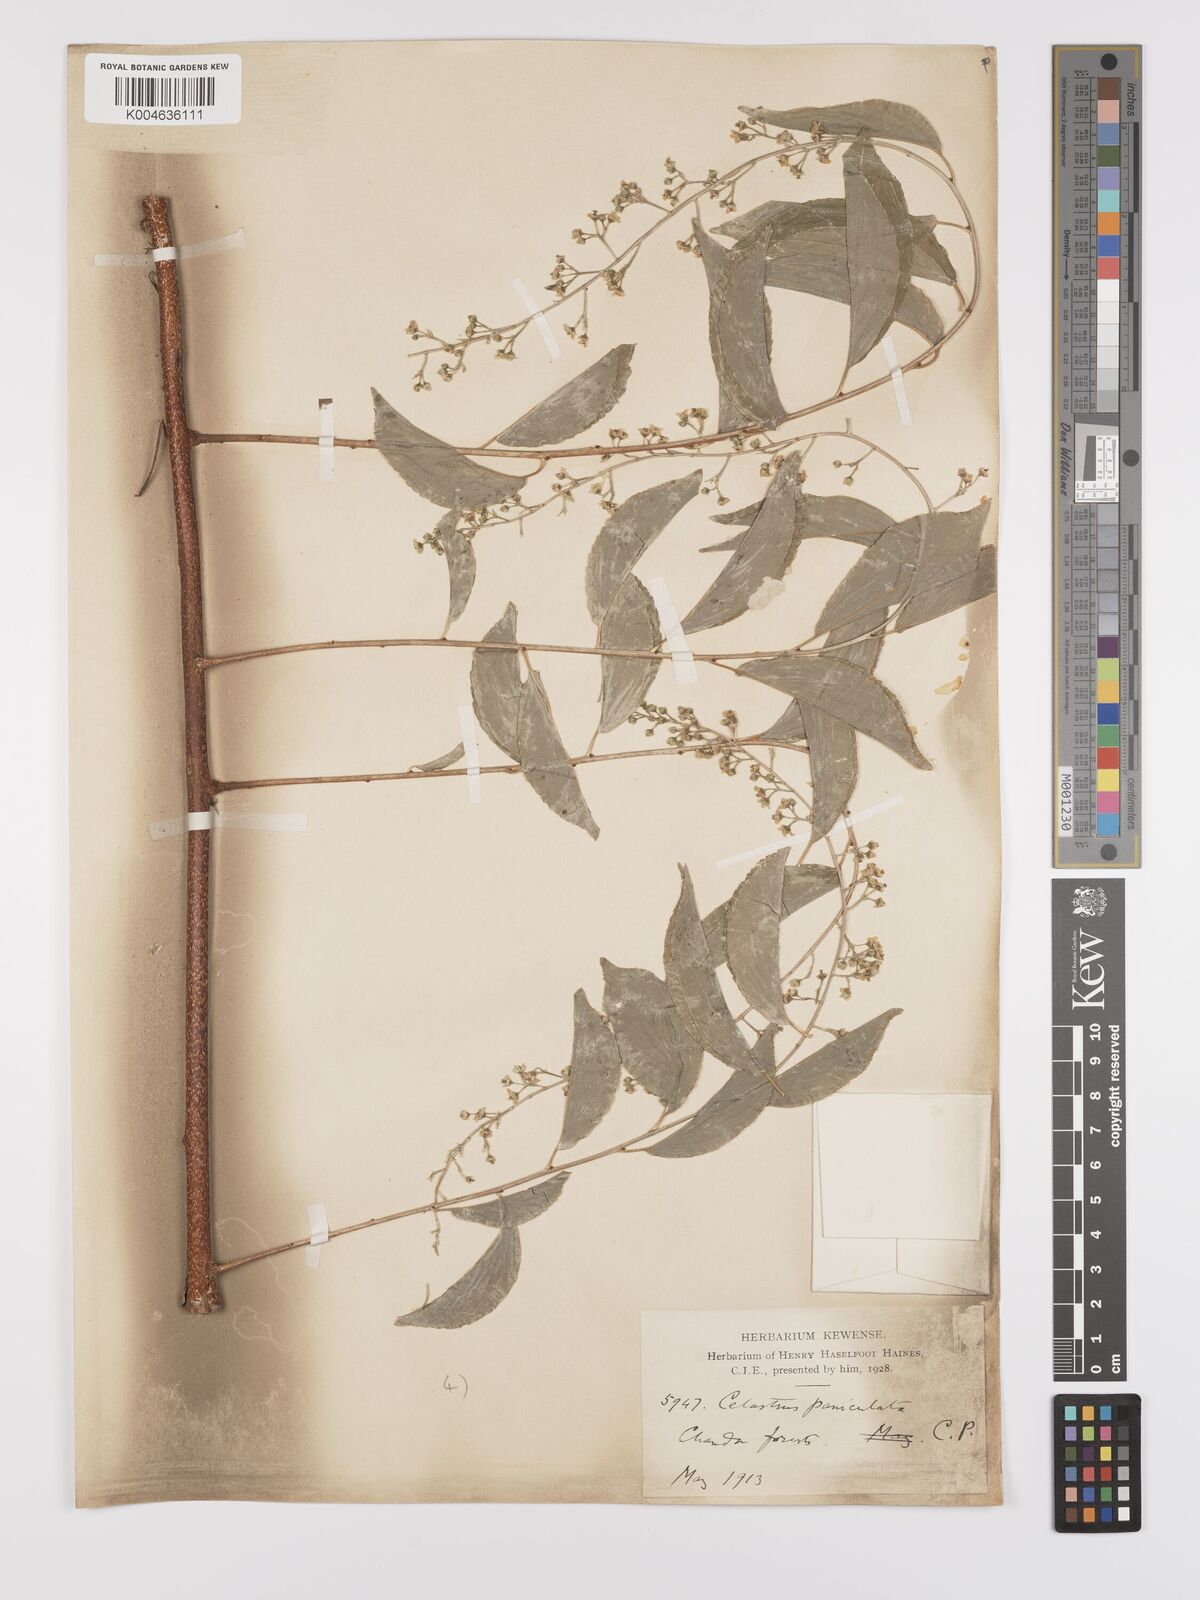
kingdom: Plantae
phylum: Tracheophyta
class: Magnoliopsida
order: Celastrales
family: Celastraceae
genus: Celastrus
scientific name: Celastrus
